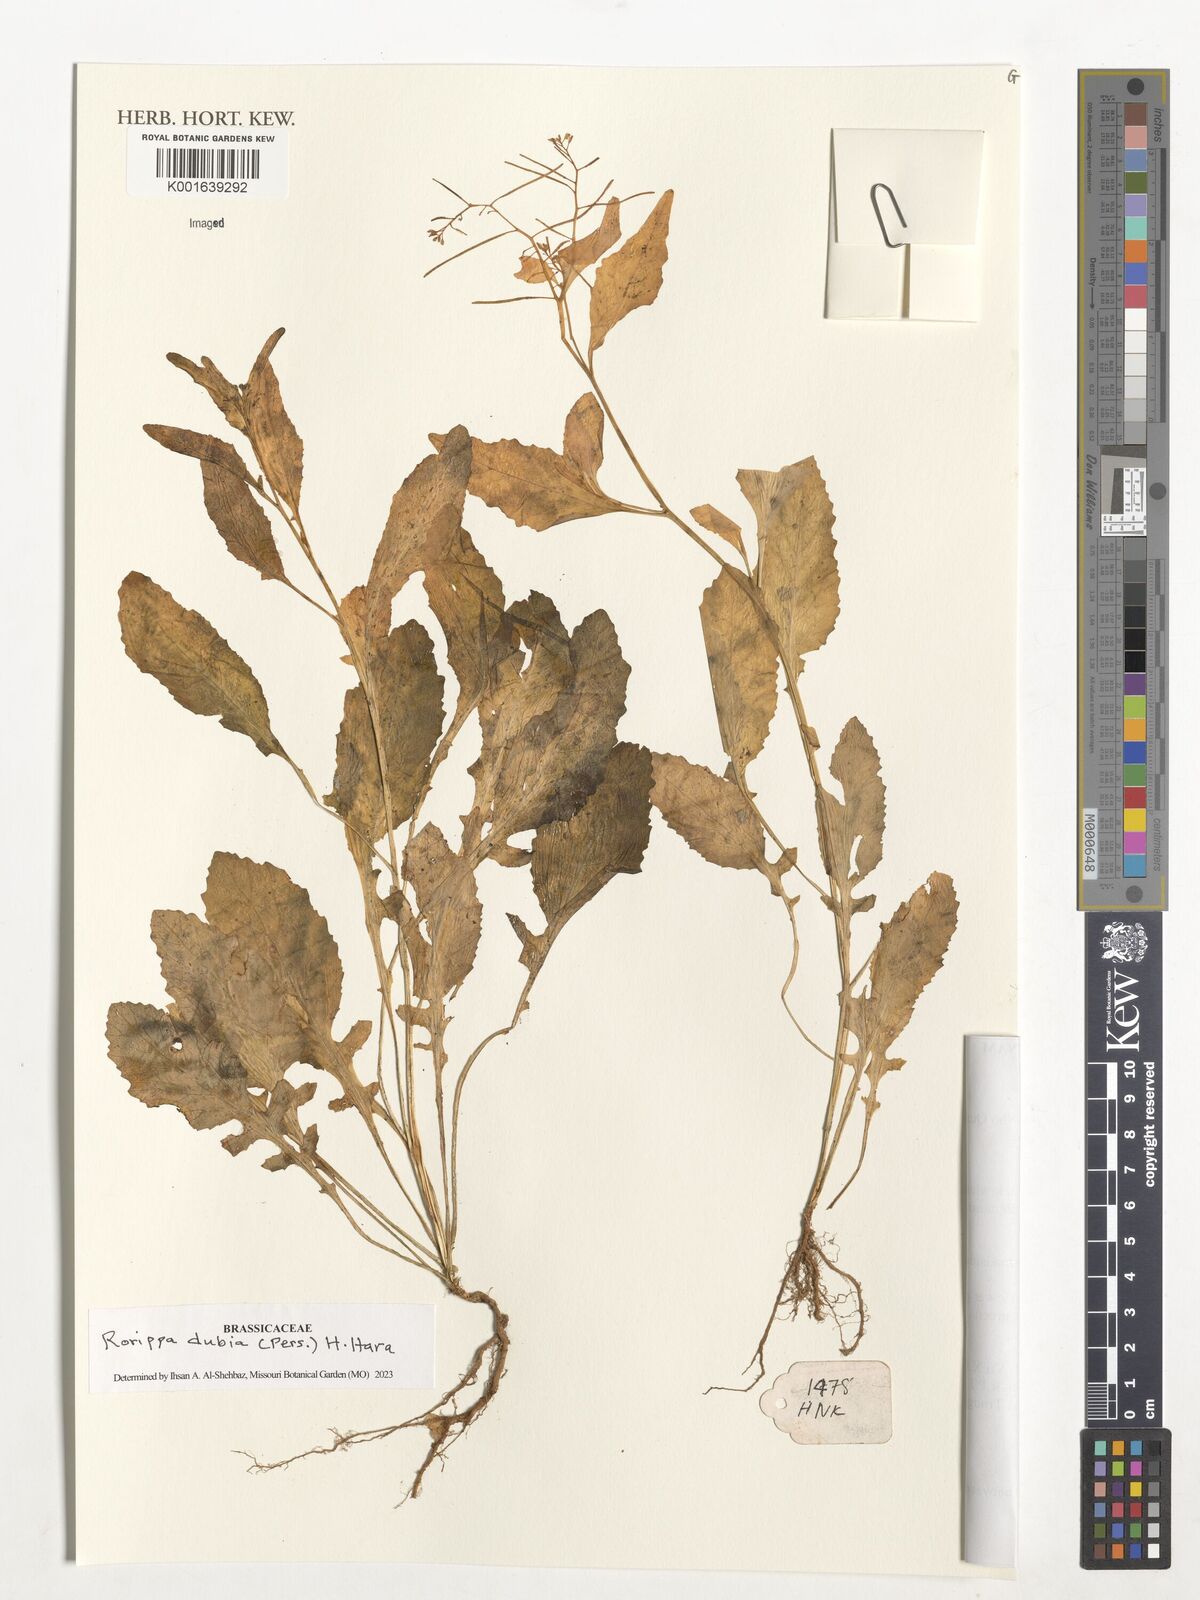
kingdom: Plantae
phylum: Tracheophyta
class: Magnoliopsida
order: Brassicales
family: Brassicaceae
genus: Rorippa
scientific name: Rorippa dubia
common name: Variableleaf yellowcress
